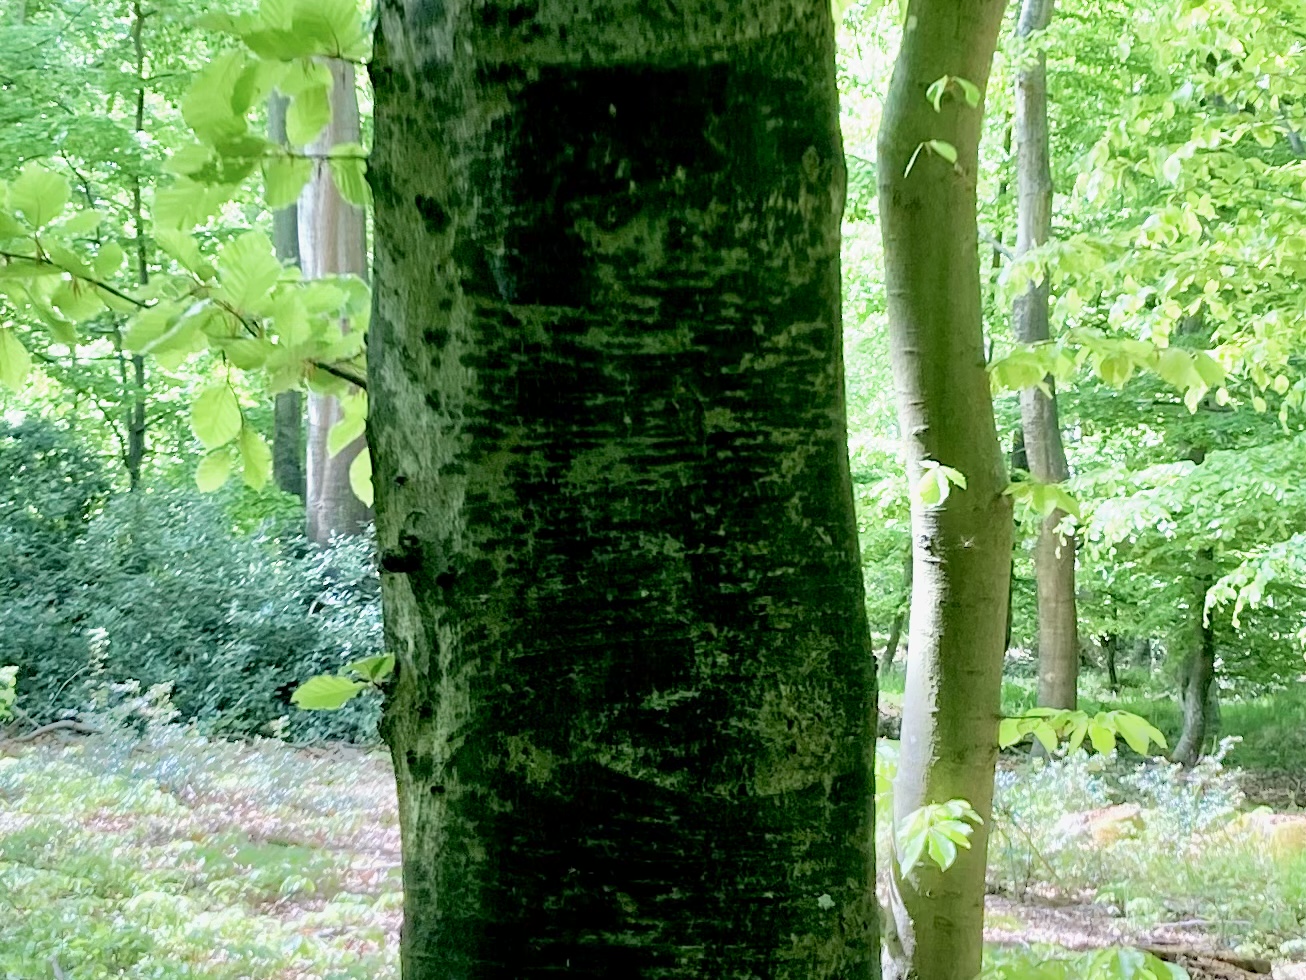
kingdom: Fungi
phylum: Ascomycota
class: Leotiomycetes
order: Rhytismatales
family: Ascodichaenaceae
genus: Ascodichaena
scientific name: Ascodichaena rugosa
